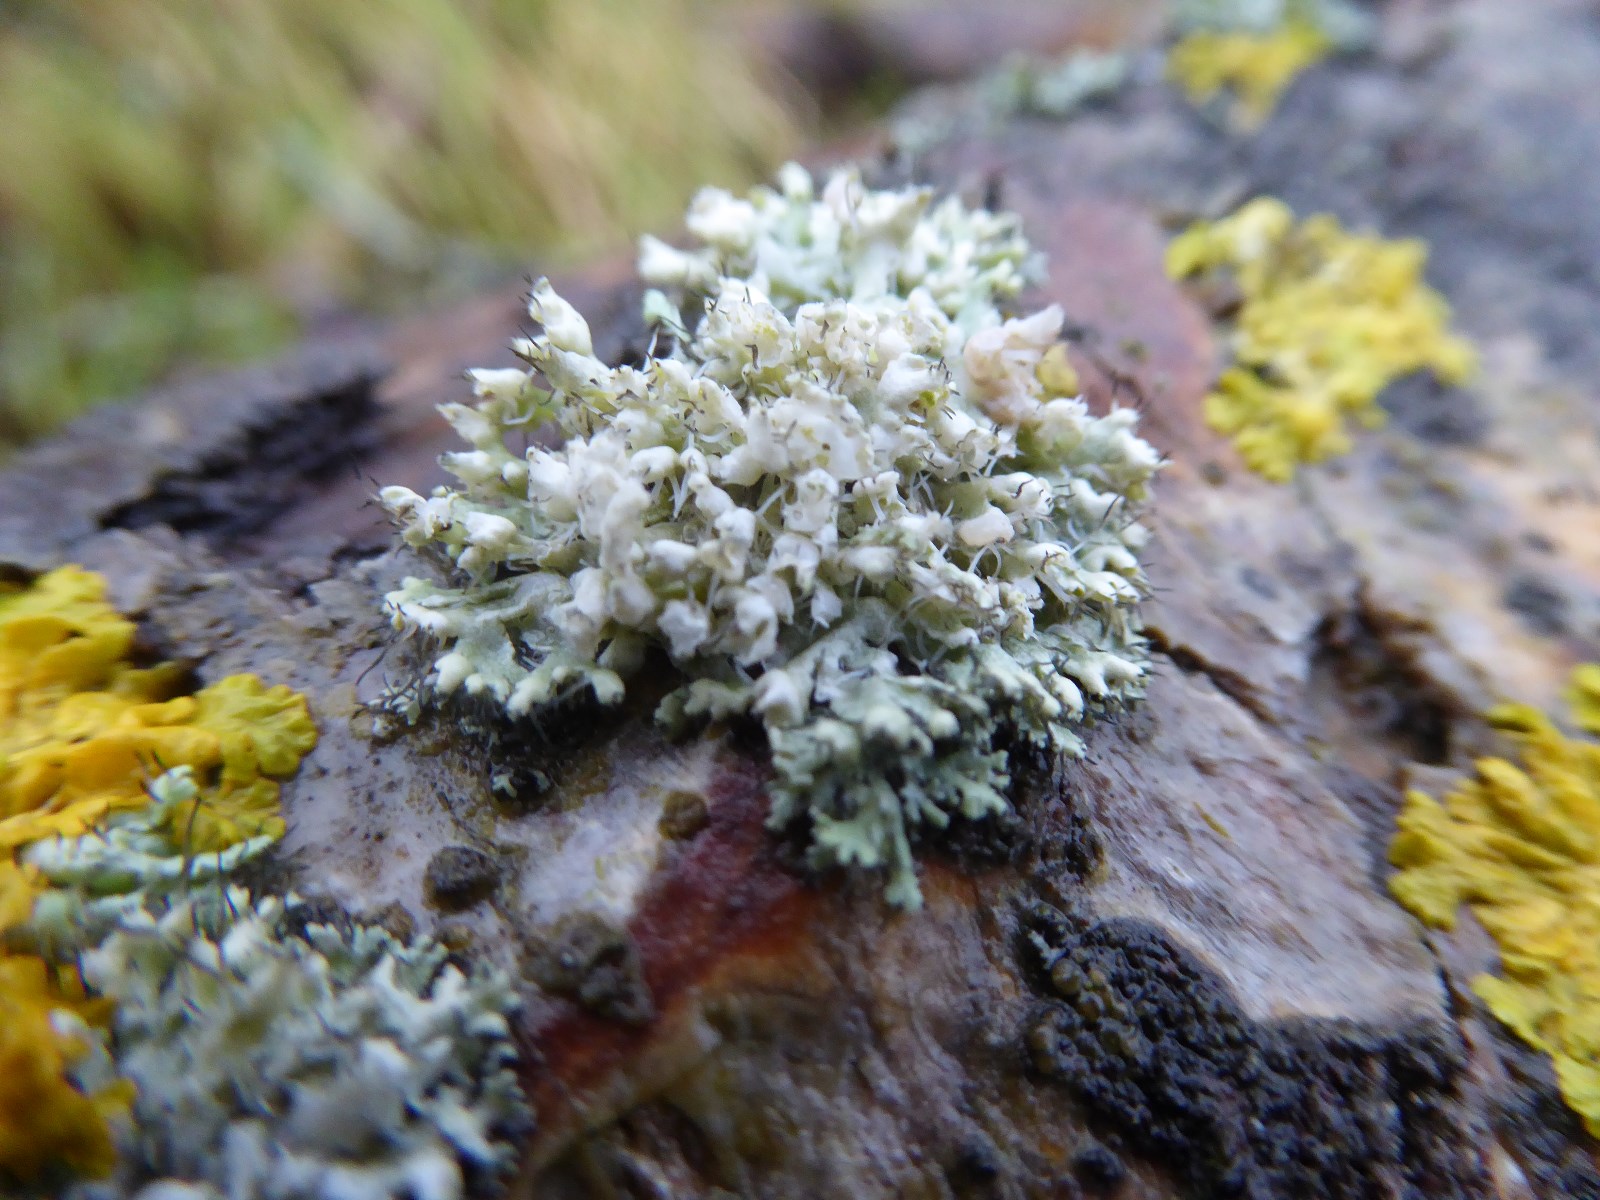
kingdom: Fungi
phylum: Ascomycota
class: Lecanoromycetes
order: Caliciales
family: Physciaceae
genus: Physcia
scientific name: Physcia adscendens
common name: hætte-rosetlav
